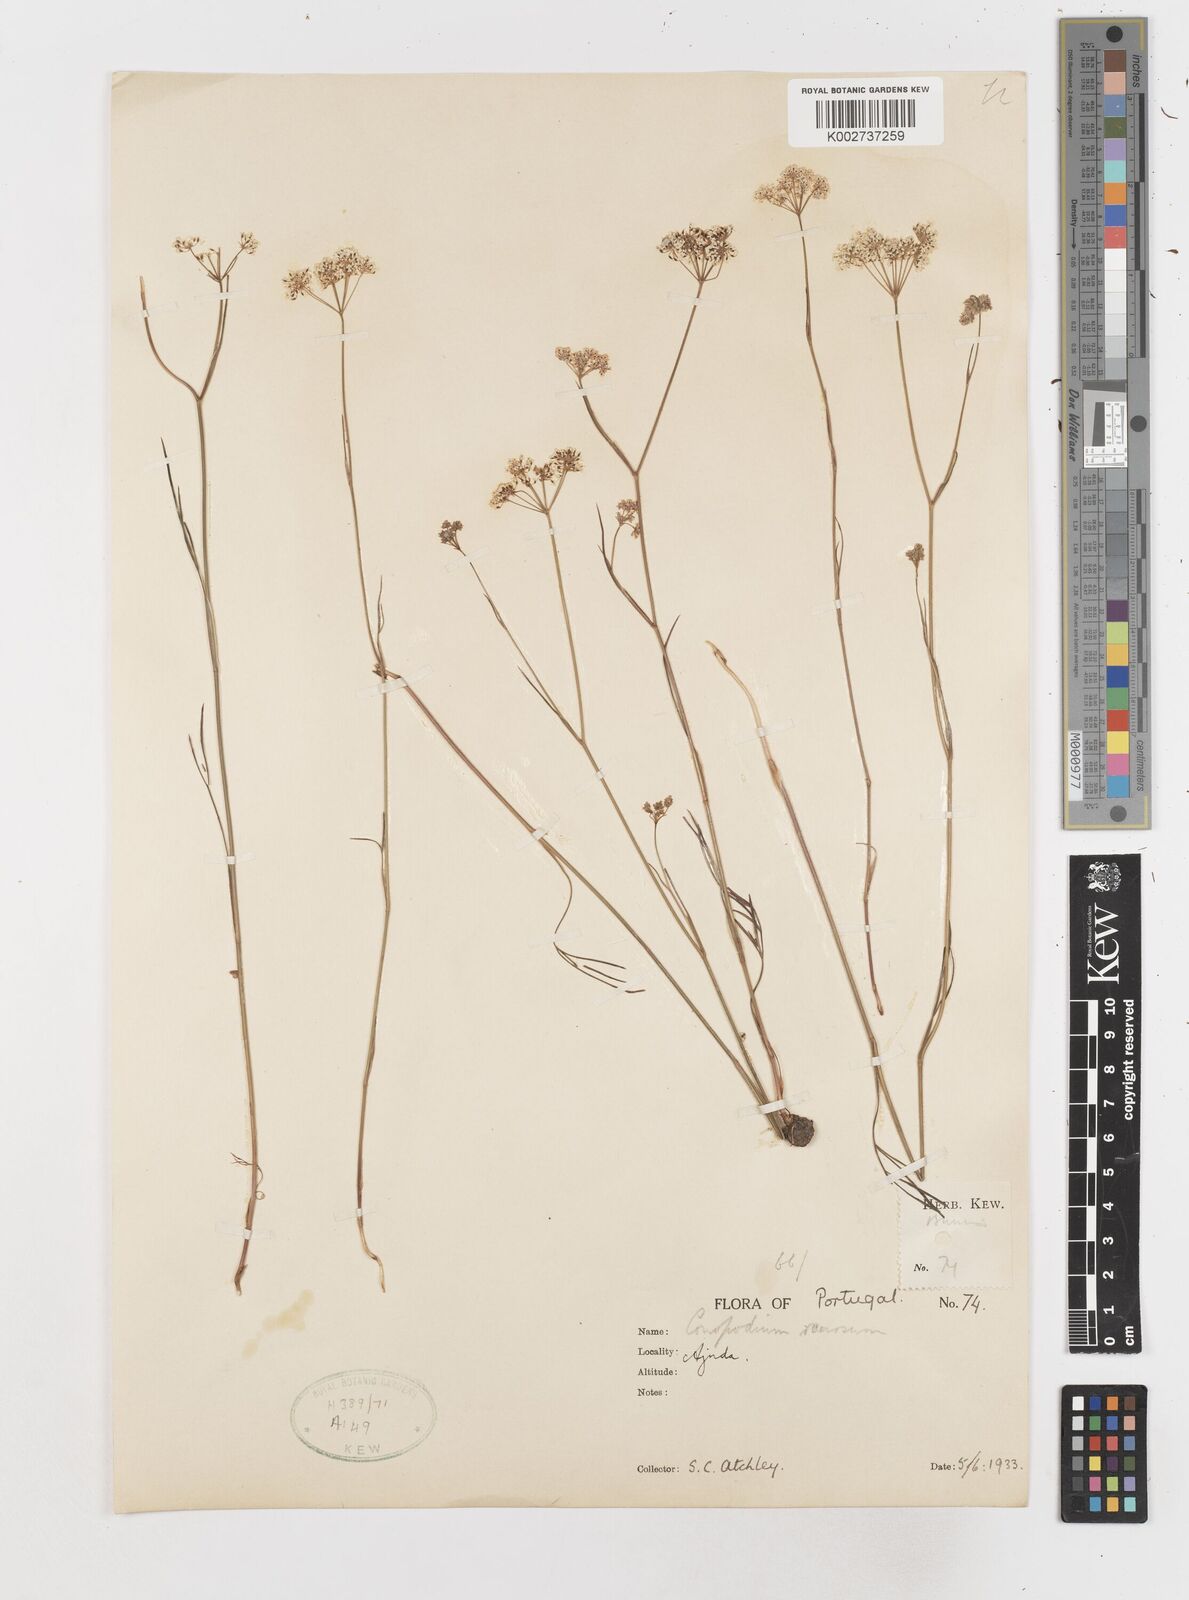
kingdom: Plantae
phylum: Tracheophyta
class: Magnoliopsida
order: Apiales
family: Apiaceae
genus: Conopodium
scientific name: Conopodium arvense
